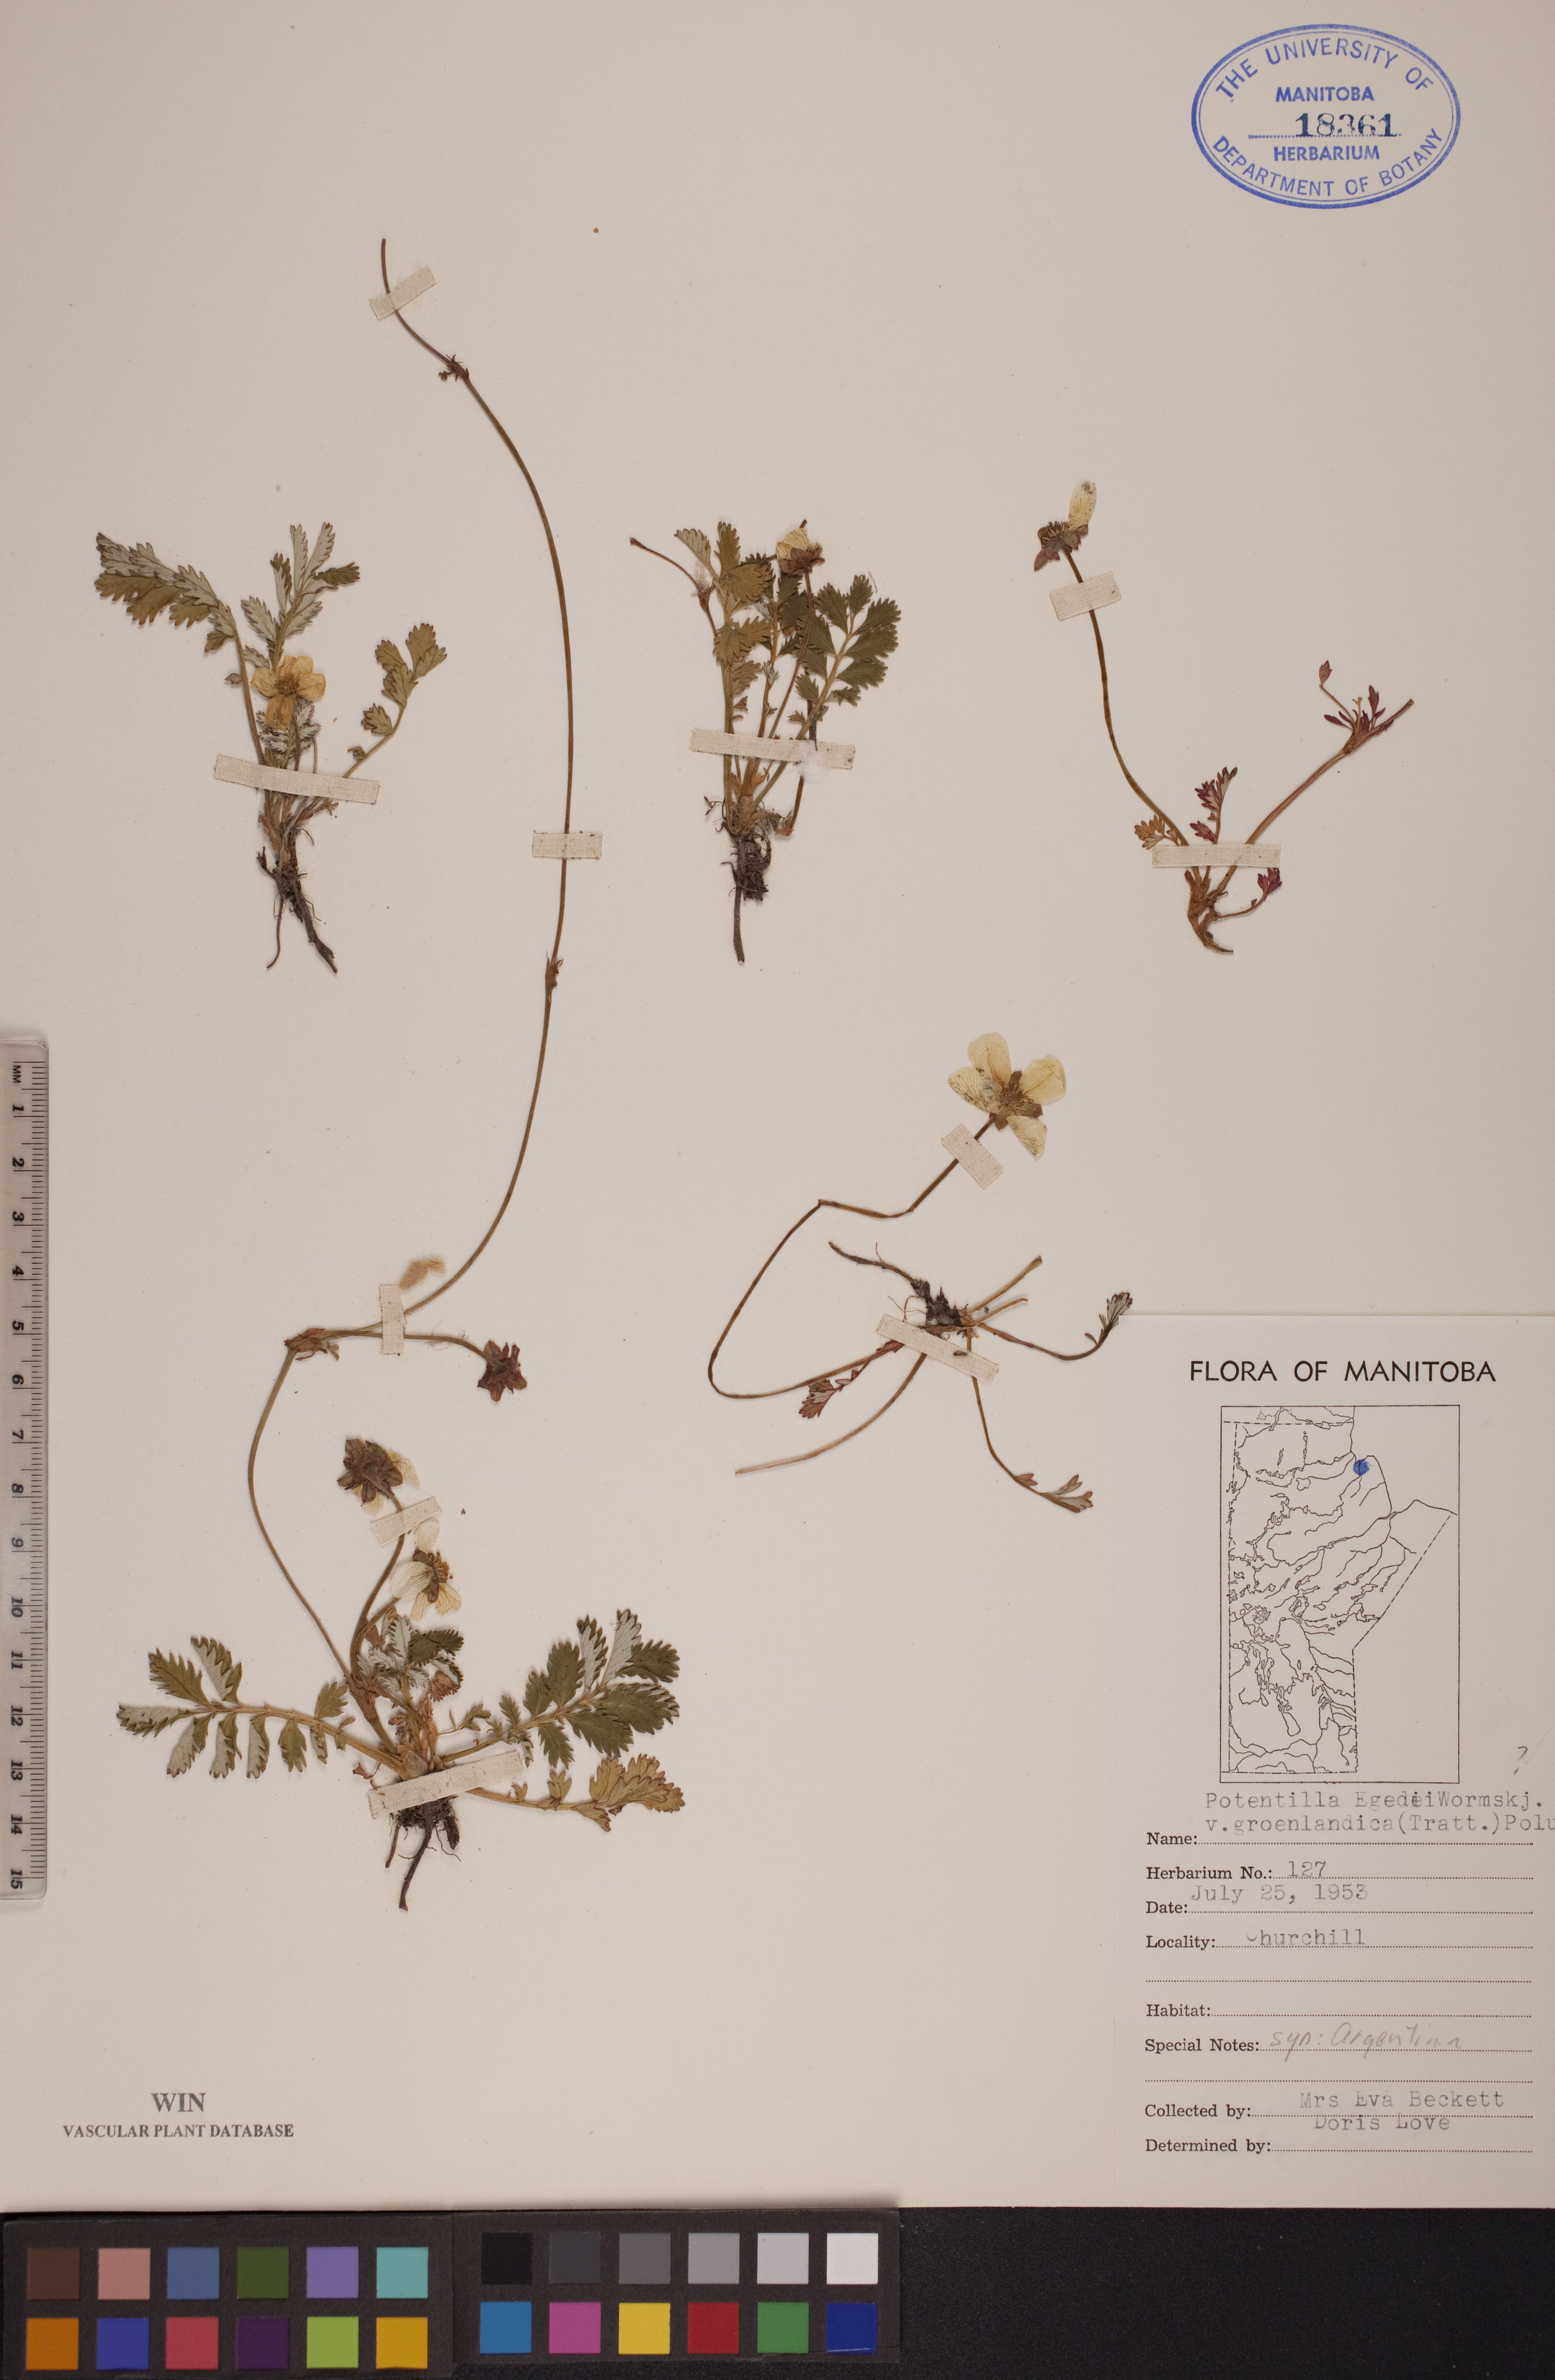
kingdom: Plantae
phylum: Tracheophyta
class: Magnoliopsida
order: Rosales
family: Rosaceae
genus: Argentina
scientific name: Argentina anserina
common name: Common silverweed
